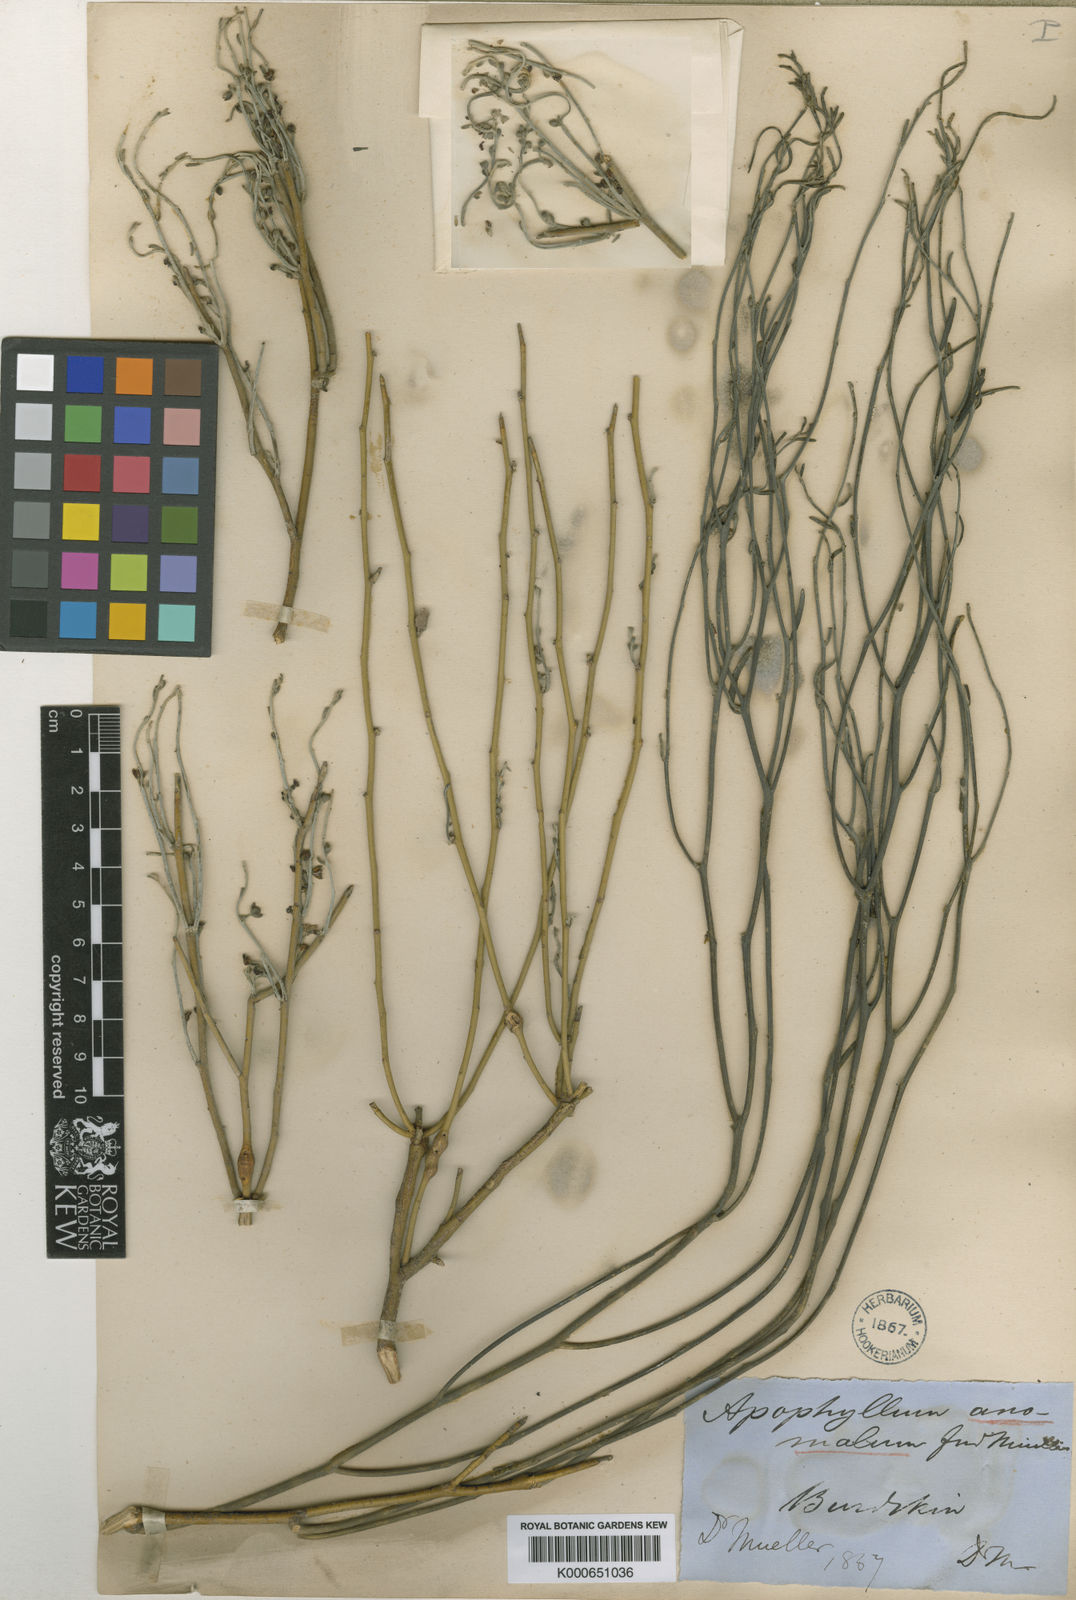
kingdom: Plantae
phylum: Tracheophyta
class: Magnoliopsida
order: Brassicales
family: Capparaceae
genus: Apophyllum
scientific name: Apophyllum anomalum
